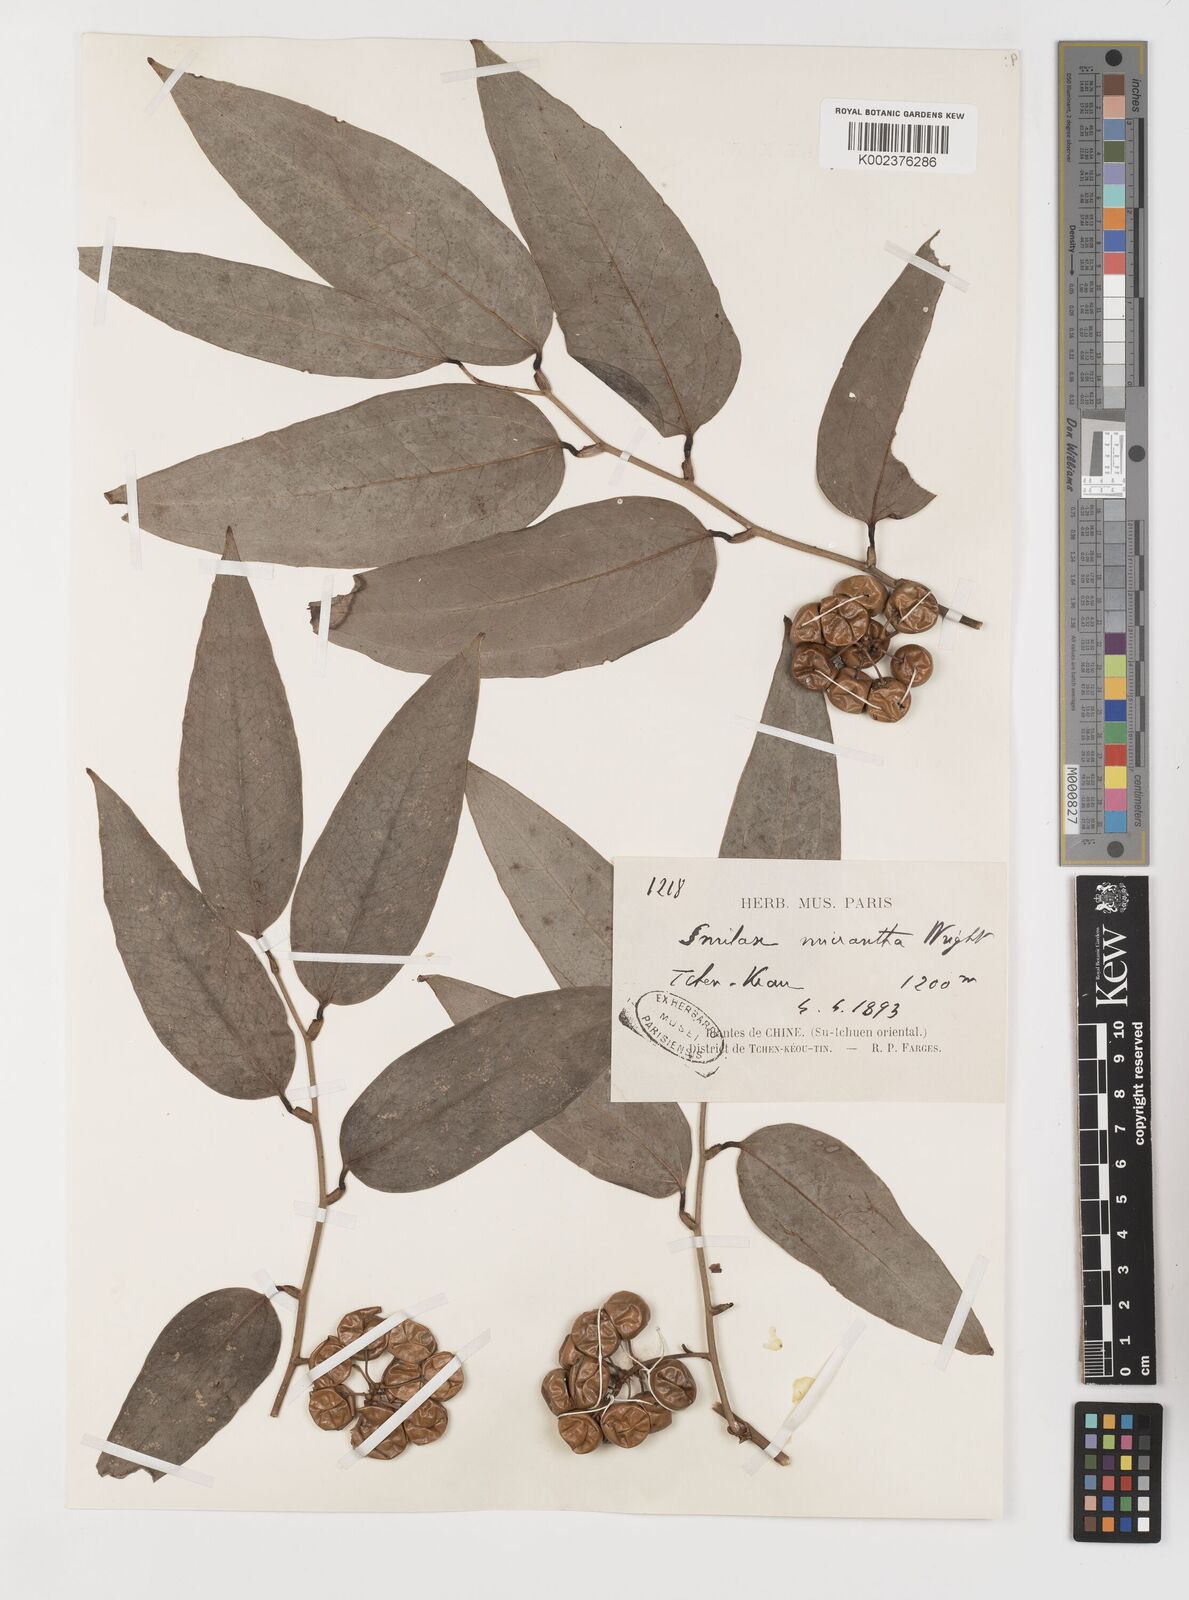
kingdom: Plantae
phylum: Tracheophyta
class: Liliopsida
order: Liliales
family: Smilacaceae
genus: Smilax
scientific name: Smilax micrantha
